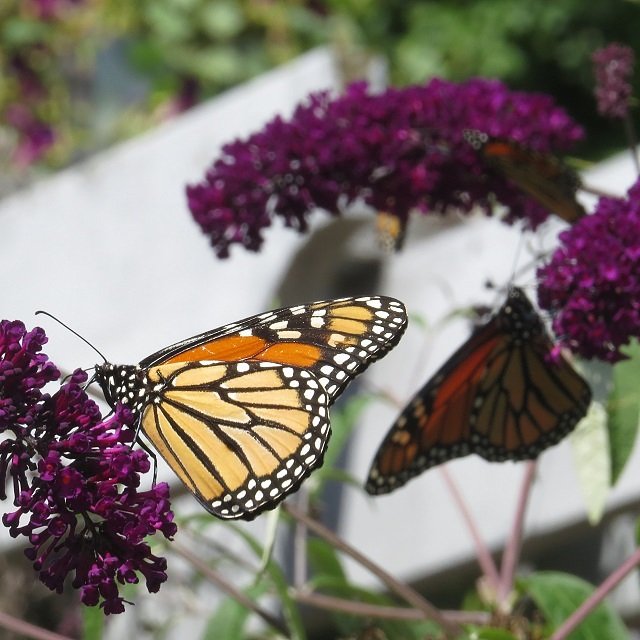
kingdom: Animalia
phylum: Arthropoda
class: Insecta
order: Lepidoptera
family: Nymphalidae
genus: Danaus
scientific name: Danaus plexippus
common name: Monarch
